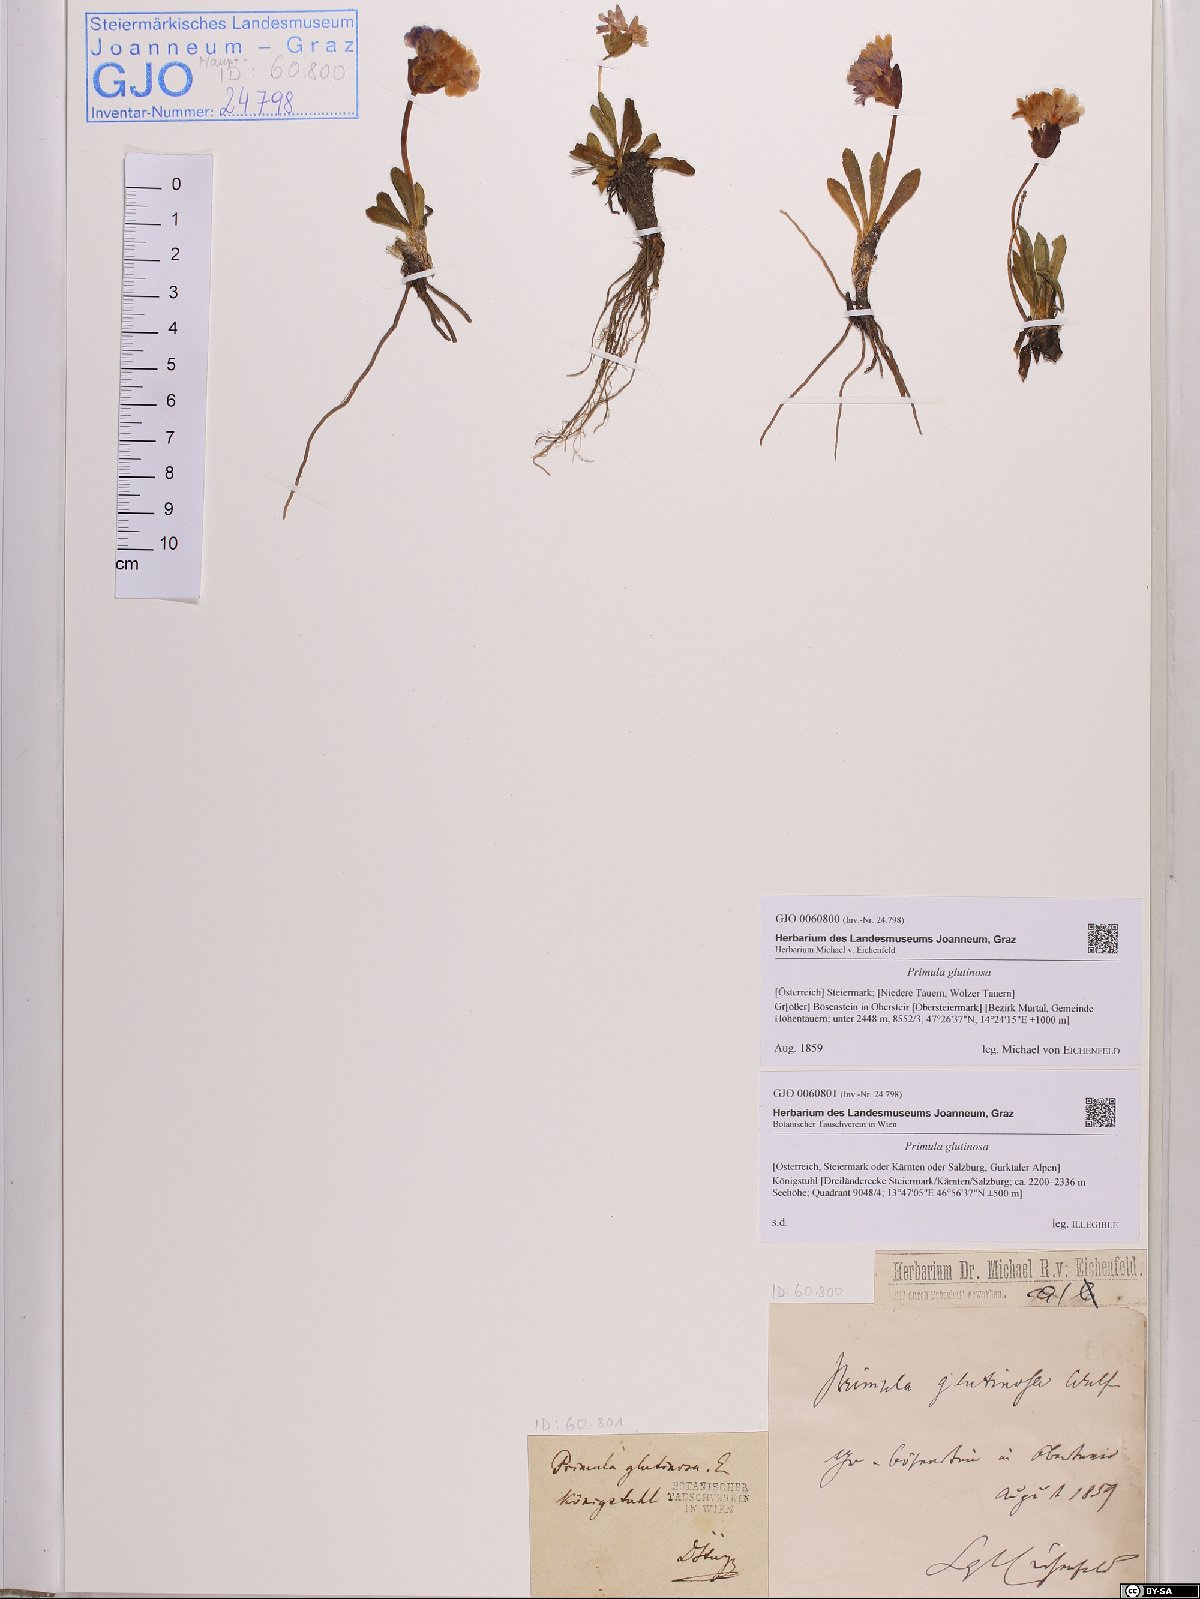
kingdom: Plantae
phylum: Tracheophyta
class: Magnoliopsida
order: Ericales
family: Primulaceae
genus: Primula
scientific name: Primula glutinosa
